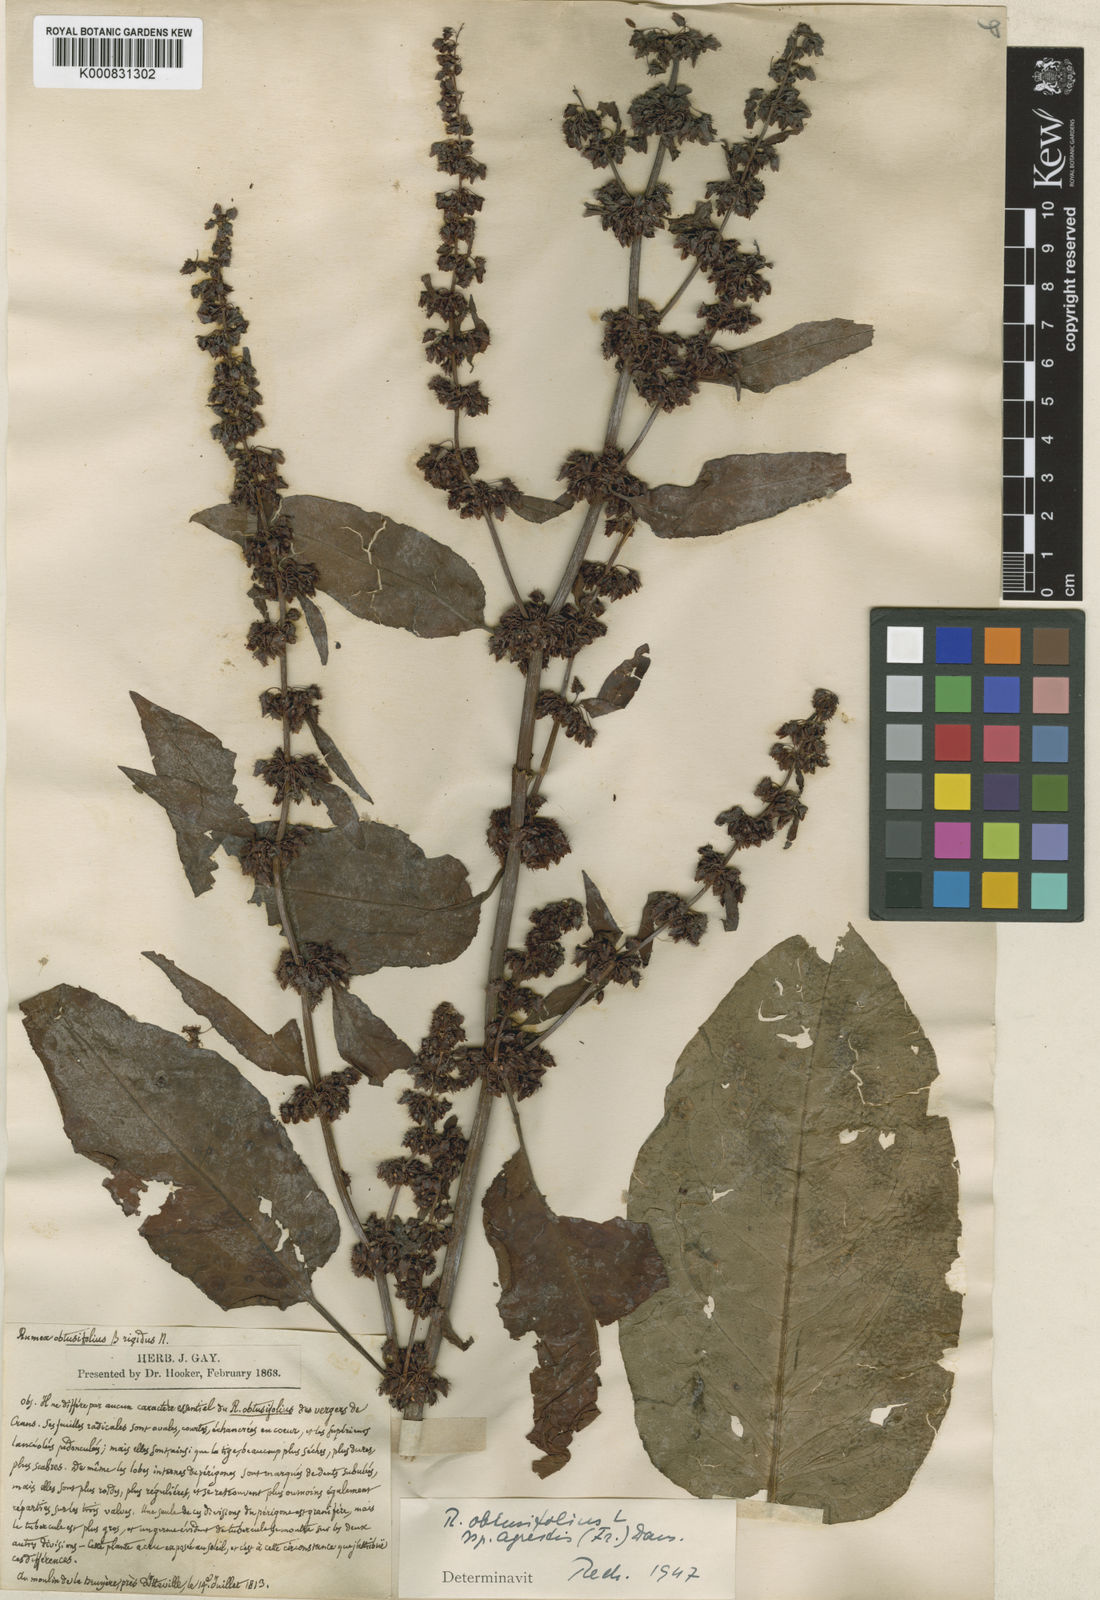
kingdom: Plantae
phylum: Tracheophyta
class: Magnoliopsida
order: Caryophyllales
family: Polygonaceae
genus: Rumex
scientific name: Rumex obtusifolius
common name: Bitter dock
